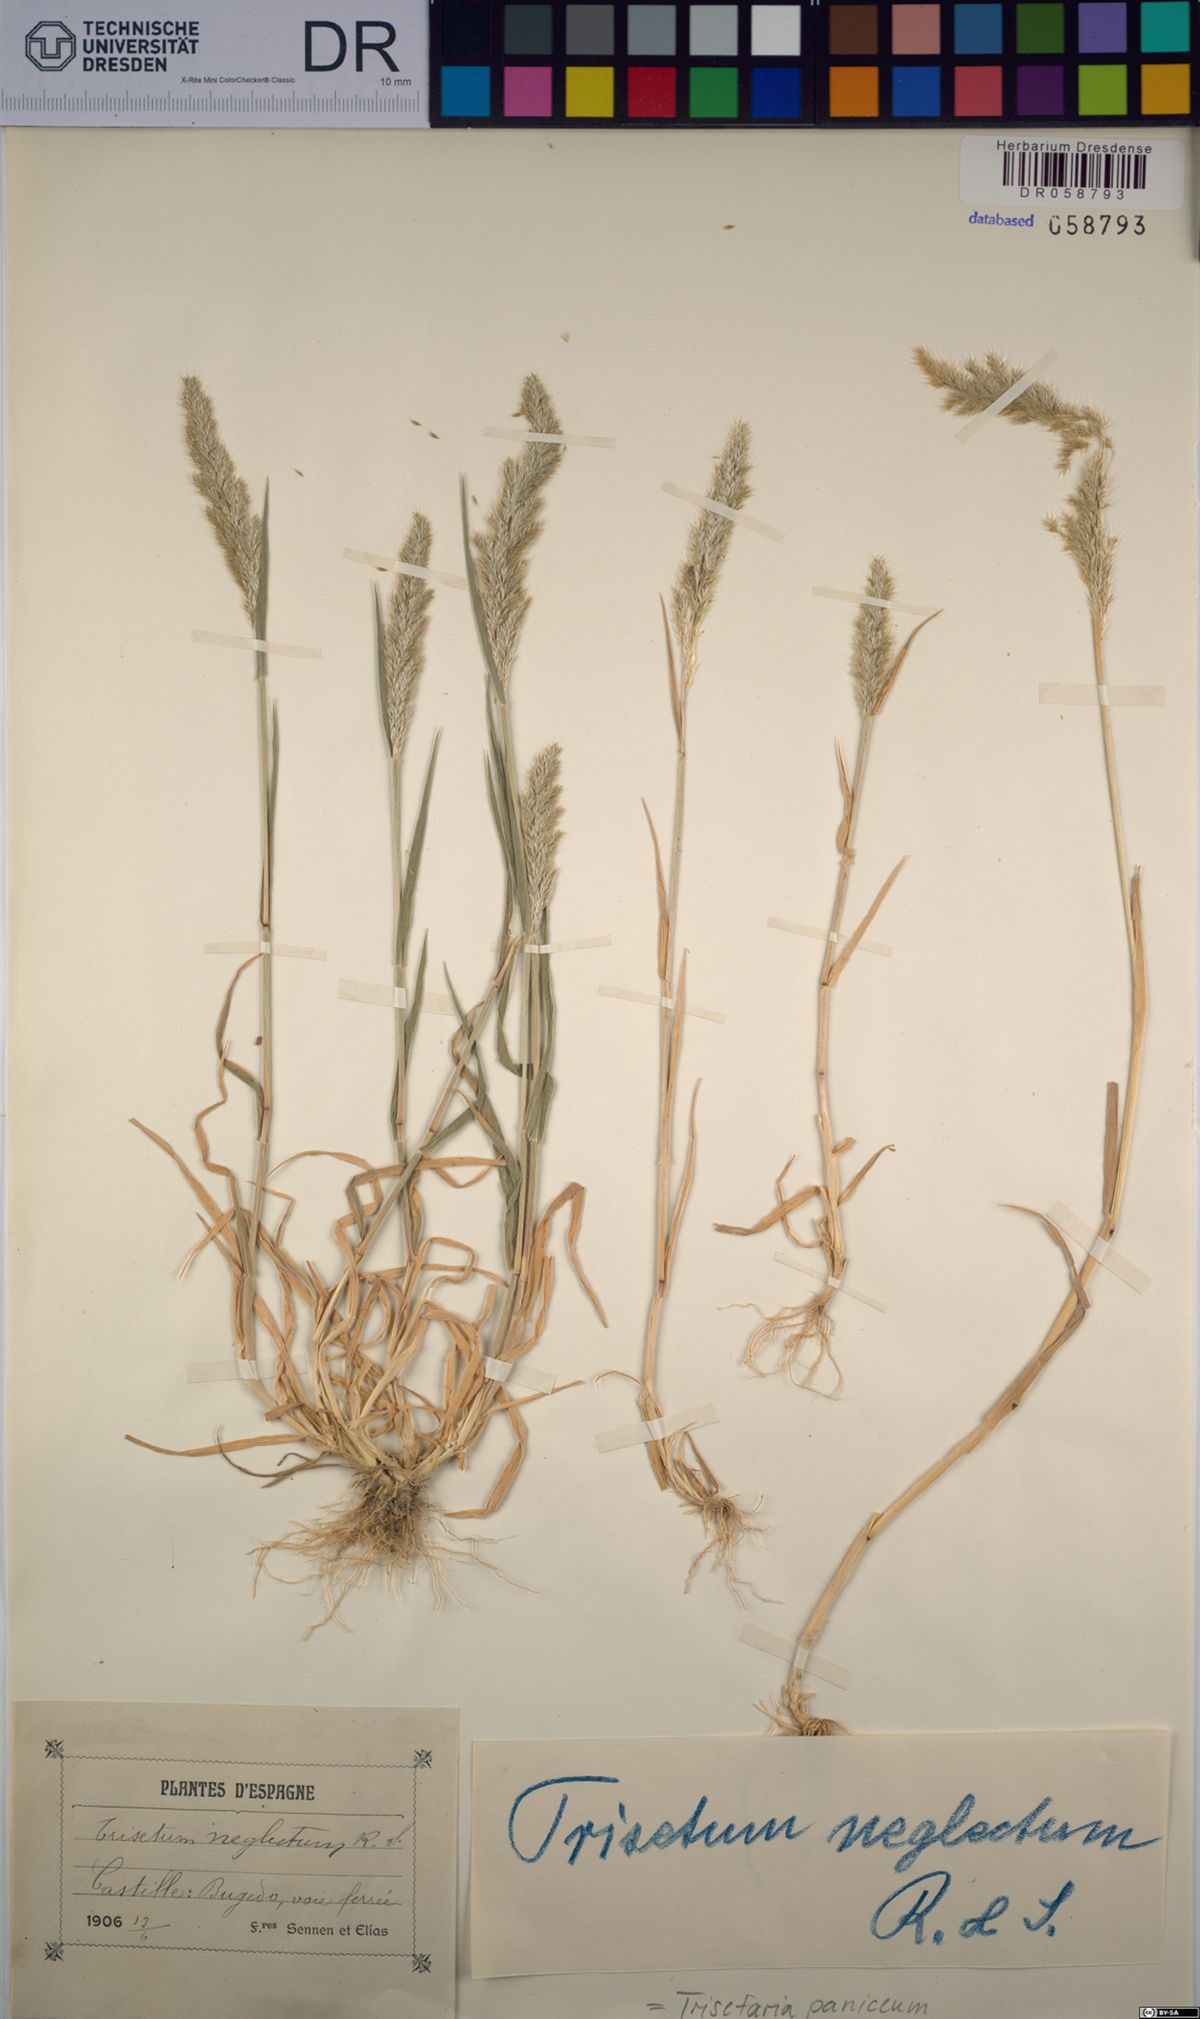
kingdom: Plantae
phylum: Tracheophyta
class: Liliopsida
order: Poales
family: Poaceae
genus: Trisetaria
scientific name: Trisetaria panicea
